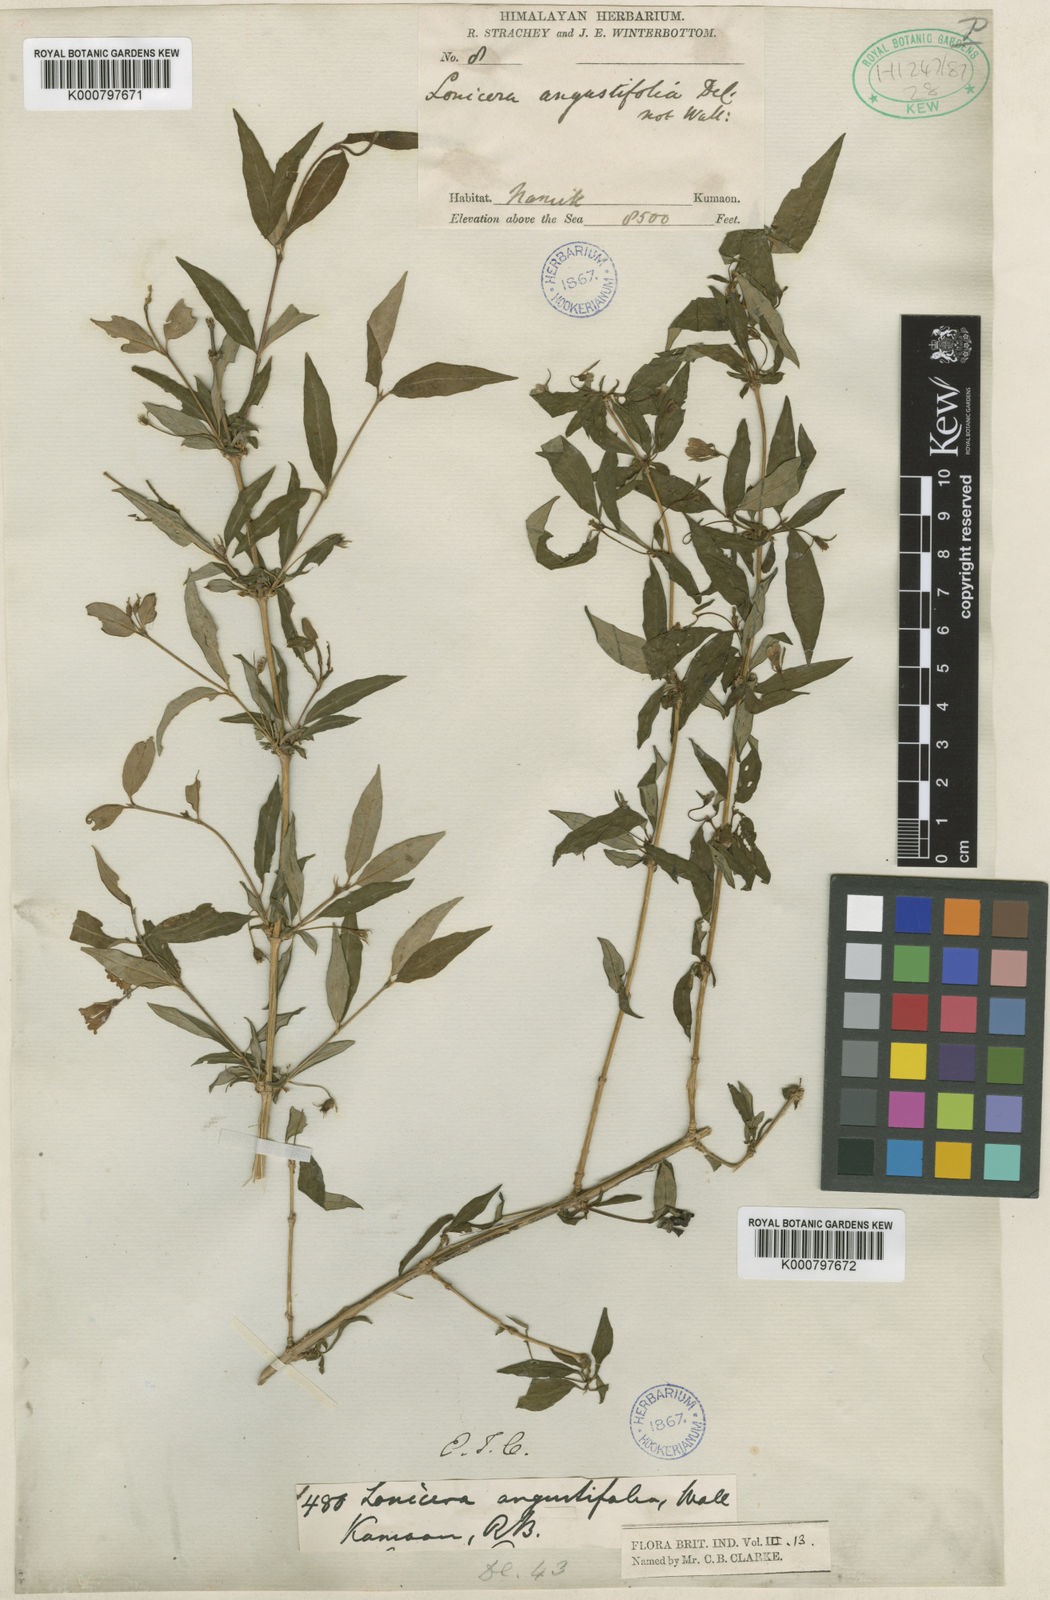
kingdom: Plantae
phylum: Tracheophyta
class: Magnoliopsida
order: Dipsacales
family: Caprifoliaceae
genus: Lonicera
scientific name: Lonicera angustifolia
